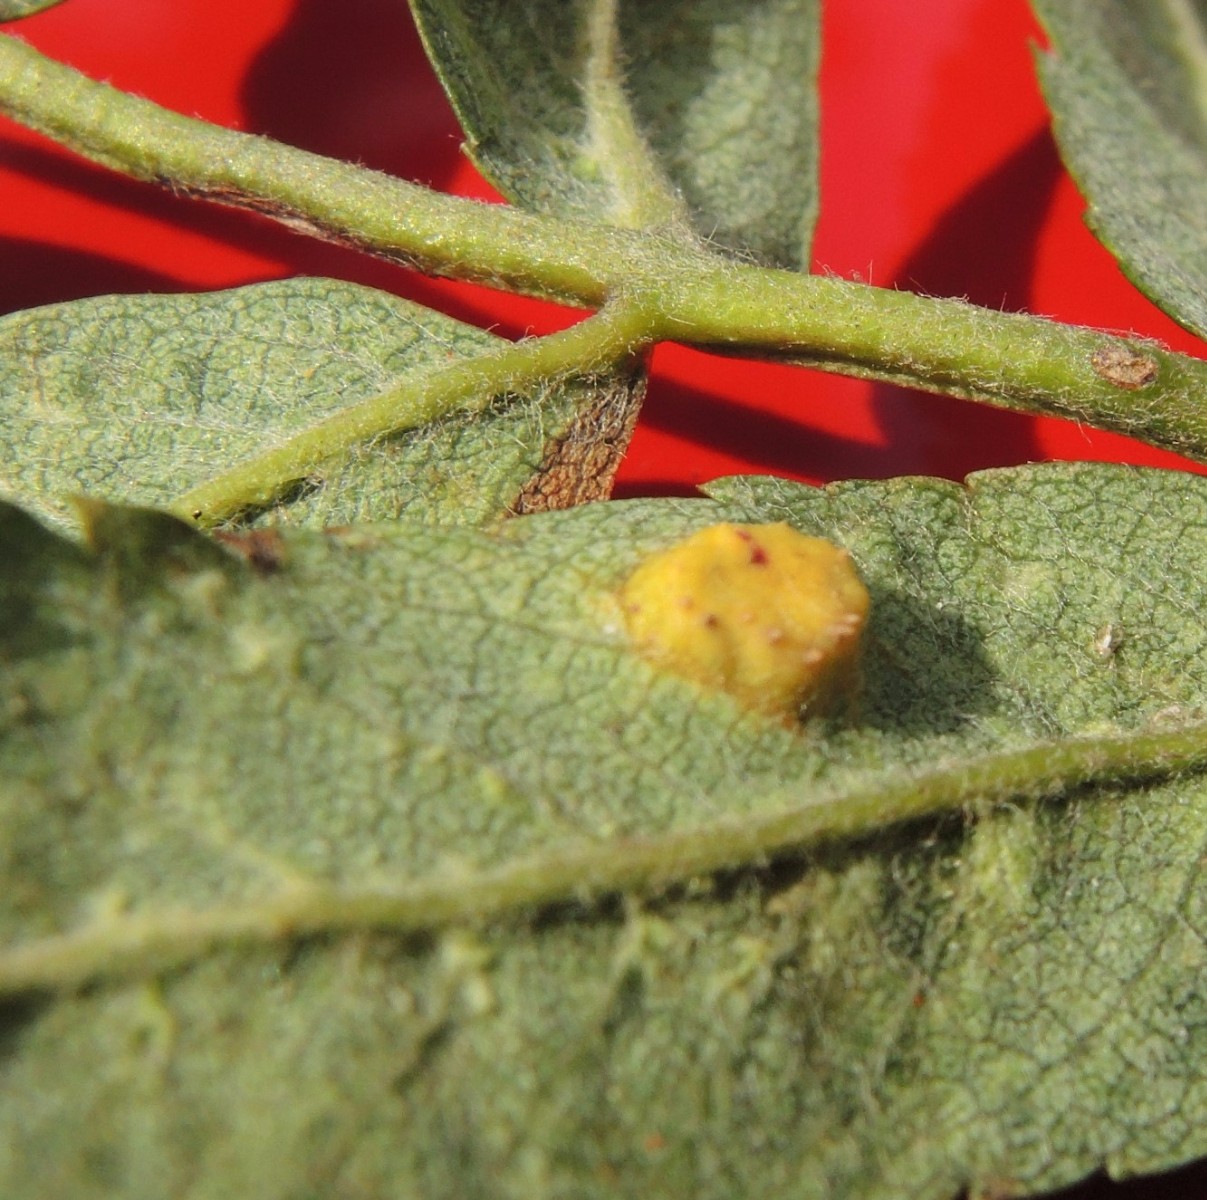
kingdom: Fungi
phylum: Basidiomycota
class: Pucciniomycetes
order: Pucciniales
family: Gymnosporangiaceae
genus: Gymnosporangium
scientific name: Gymnosporangium cornutum
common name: rønnehorn-bævrerust
